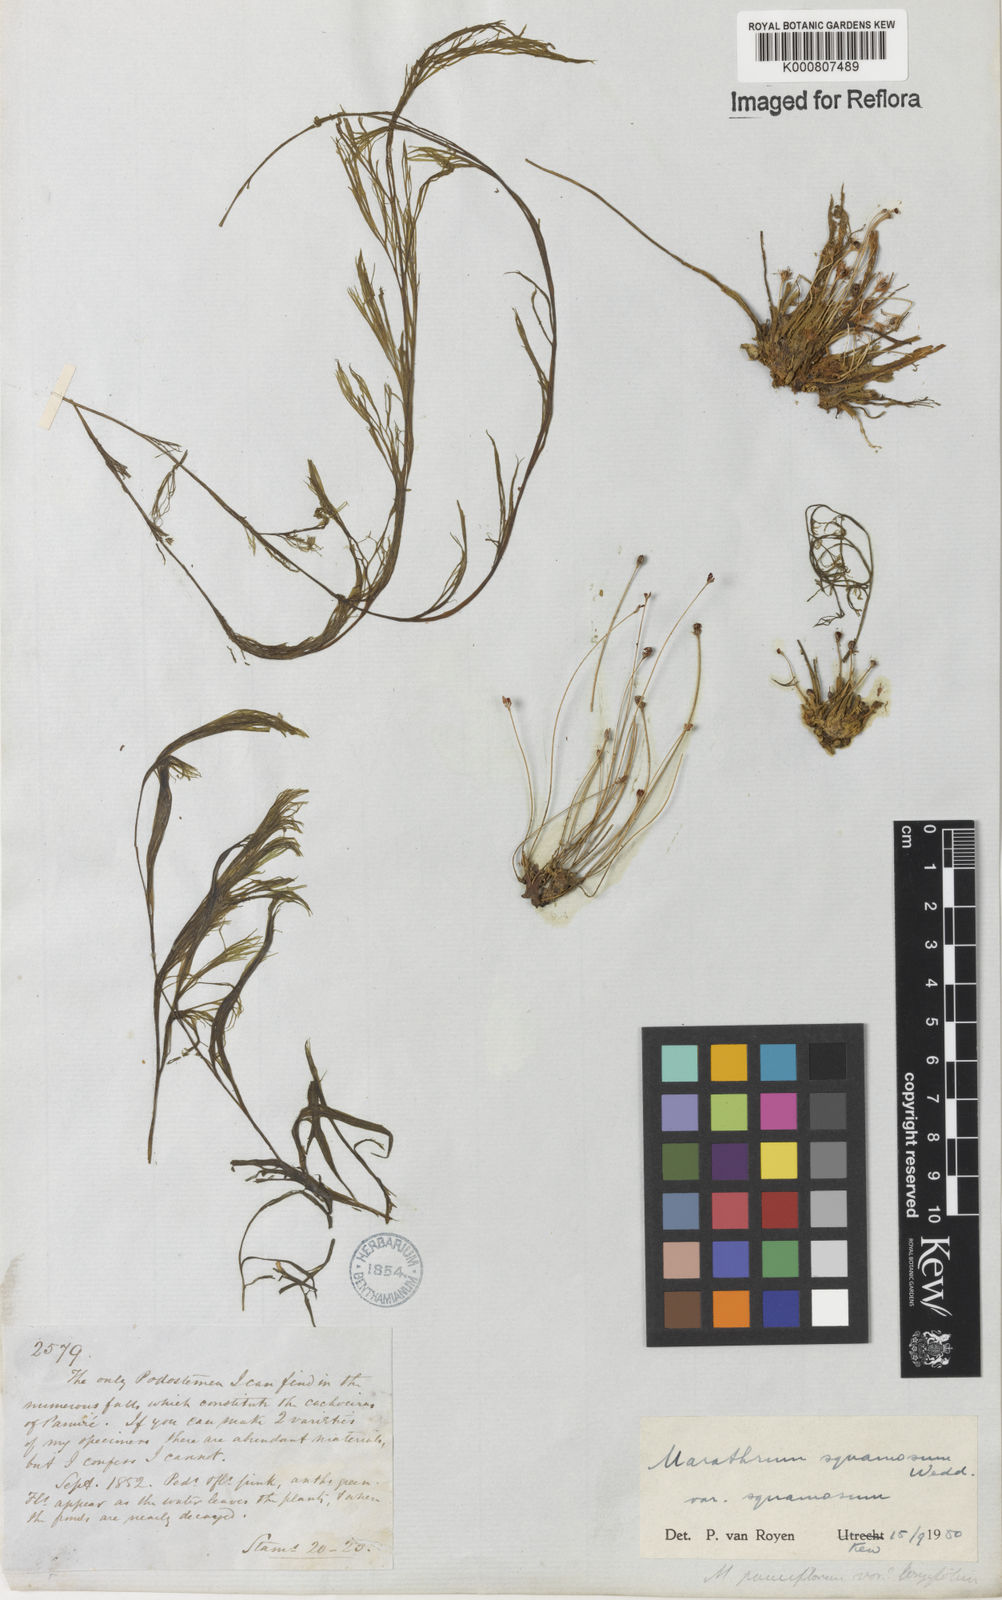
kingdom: Plantae
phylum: Tracheophyta
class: Magnoliopsida
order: Malpighiales
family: Podostemaceae
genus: Rhyncholacis
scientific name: Rhyncholacis squamosa
